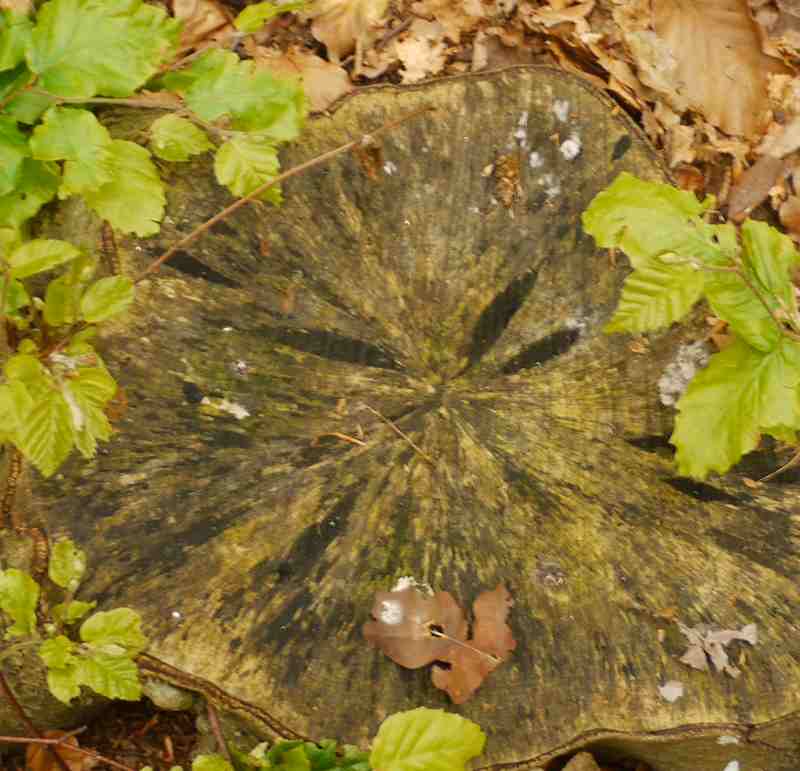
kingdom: Fungi
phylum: Ascomycota
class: Leotiomycetes
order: Helotiales
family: Helotiaceae
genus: Bispora
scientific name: Bispora pallescens
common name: måtte-snitskive
